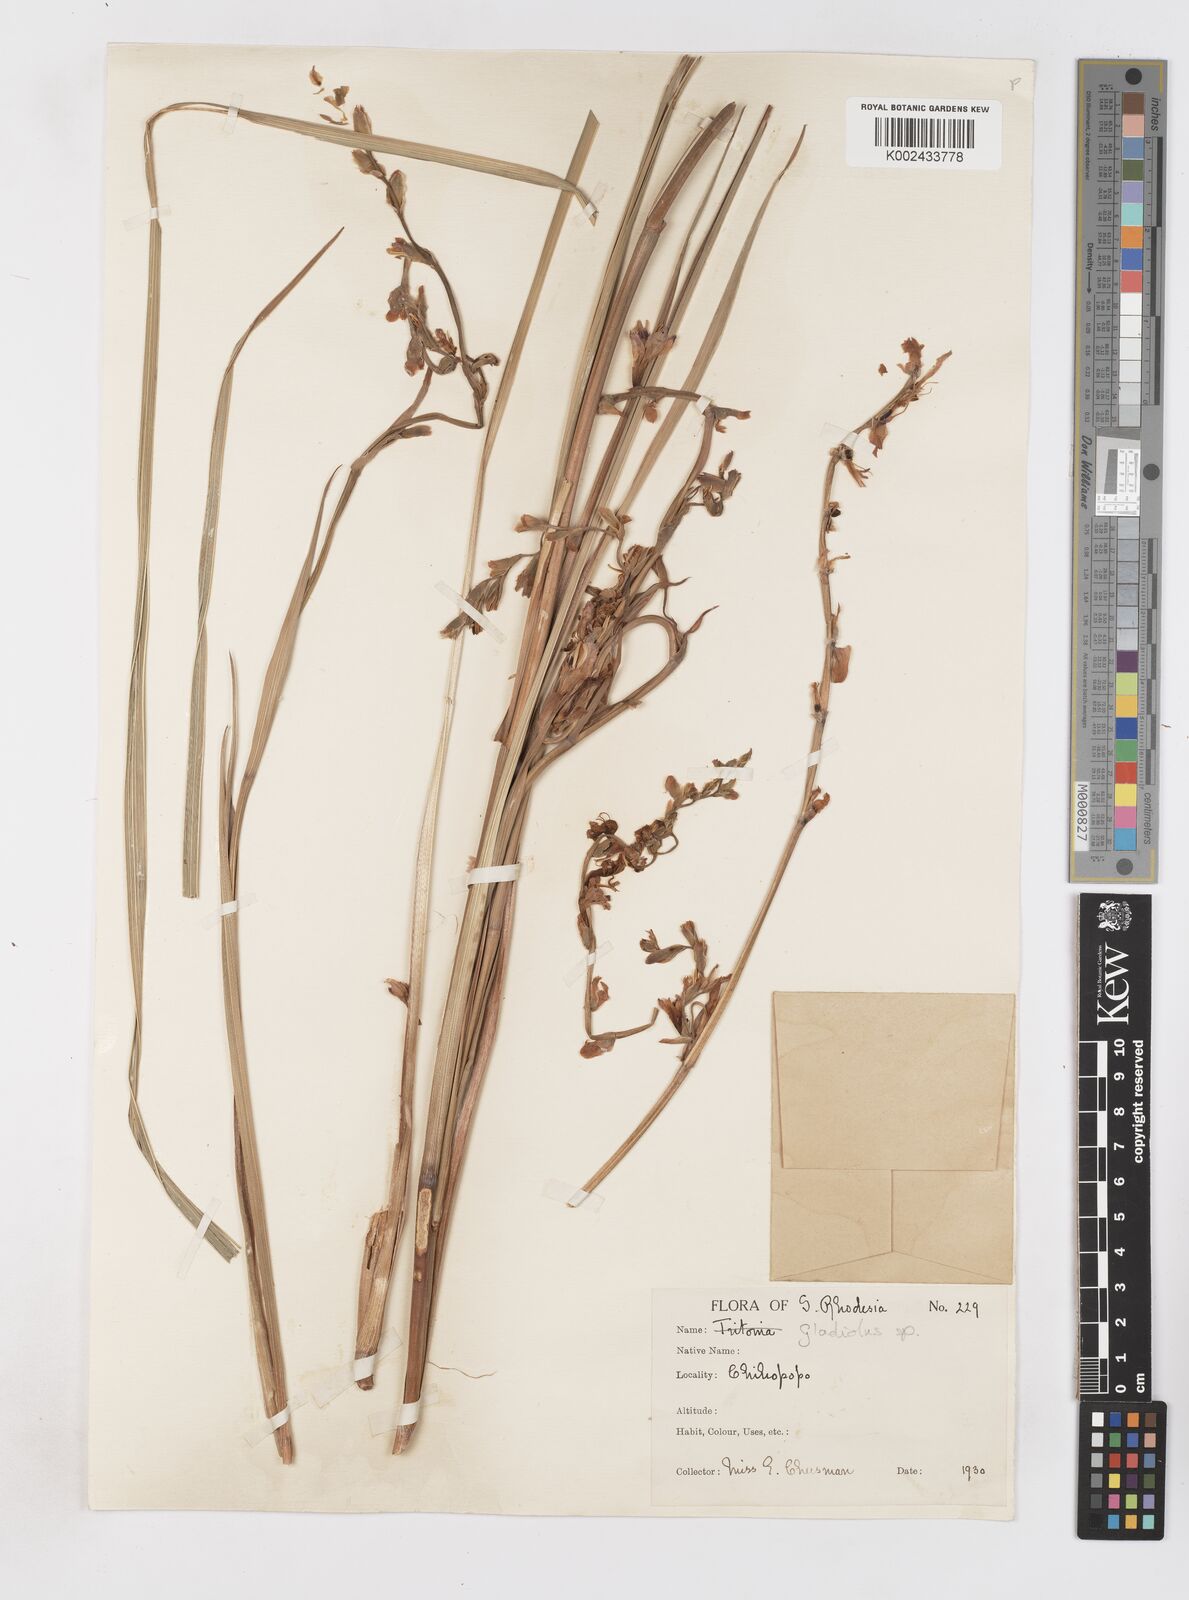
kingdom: Plantae
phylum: Tracheophyta
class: Liliopsida
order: Asparagales
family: Iridaceae
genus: Gladiolus
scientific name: Gladiolus crassifolius
